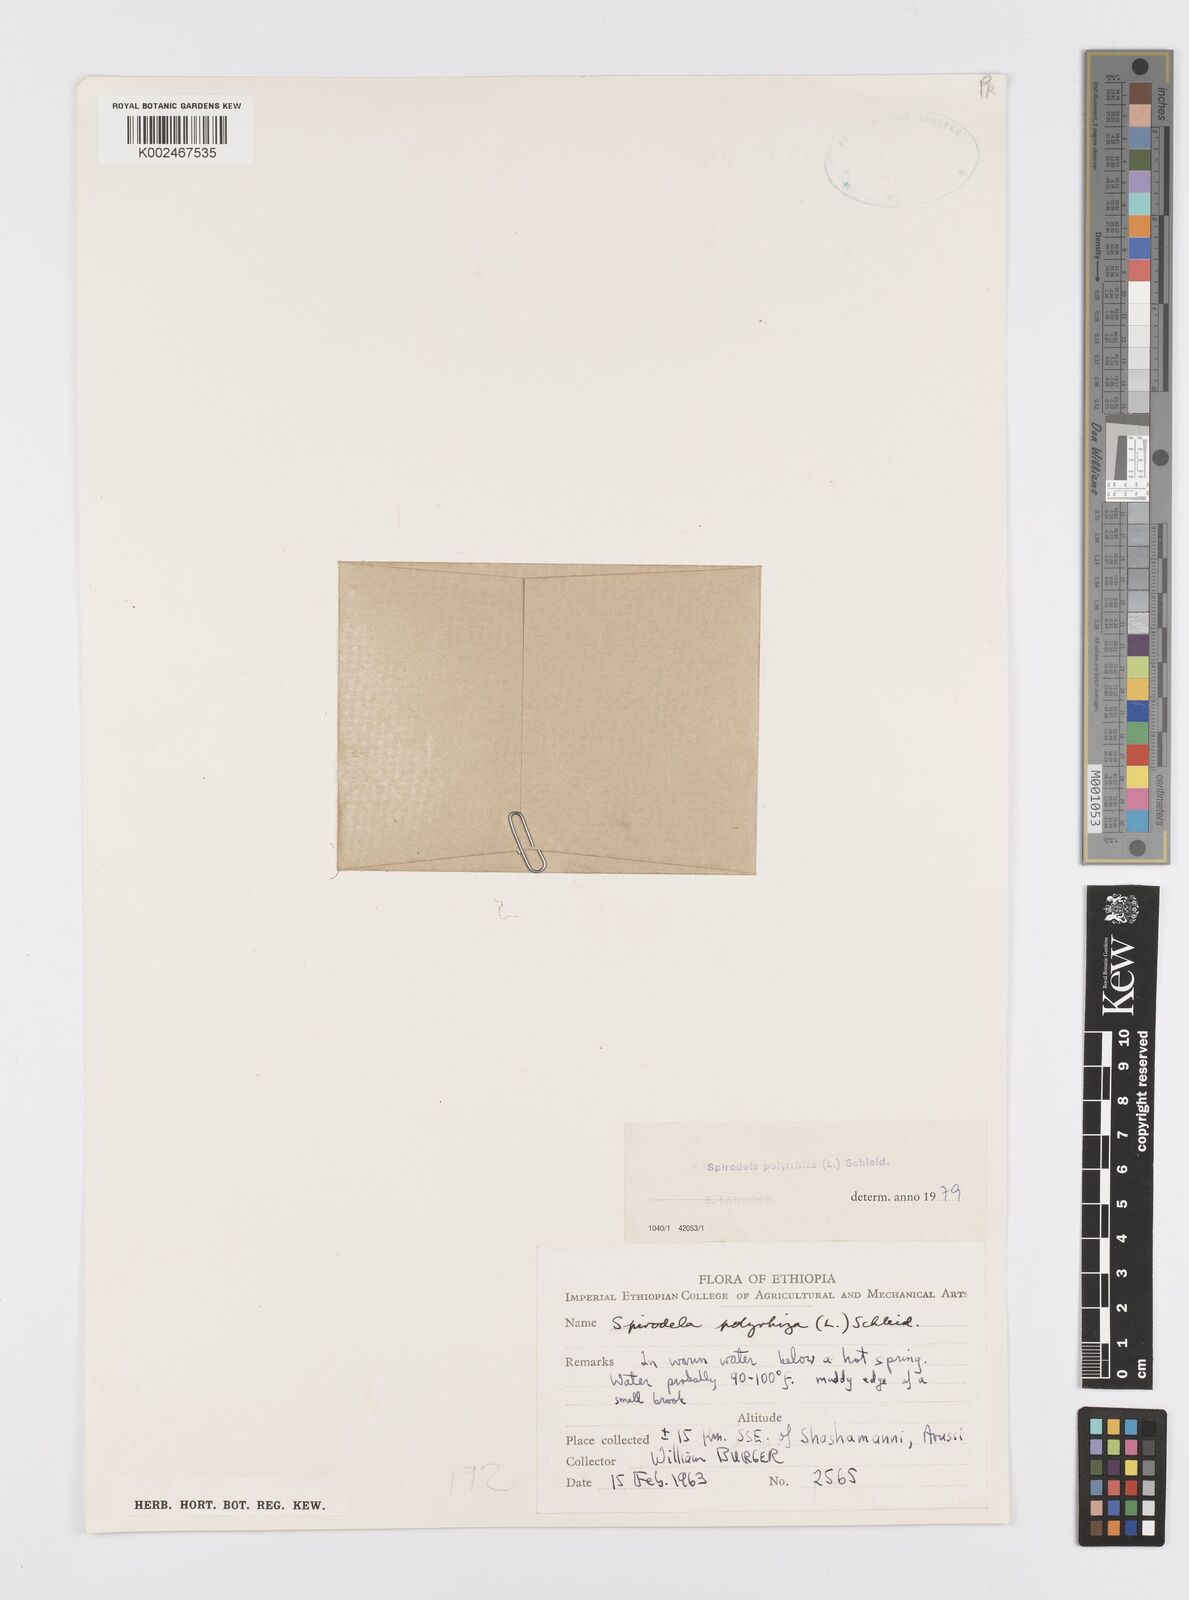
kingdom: Plantae
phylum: Tracheophyta
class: Liliopsida
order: Alismatales
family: Araceae
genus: Spirodela
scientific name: Spirodela polyrhiza
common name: Great duckweed
